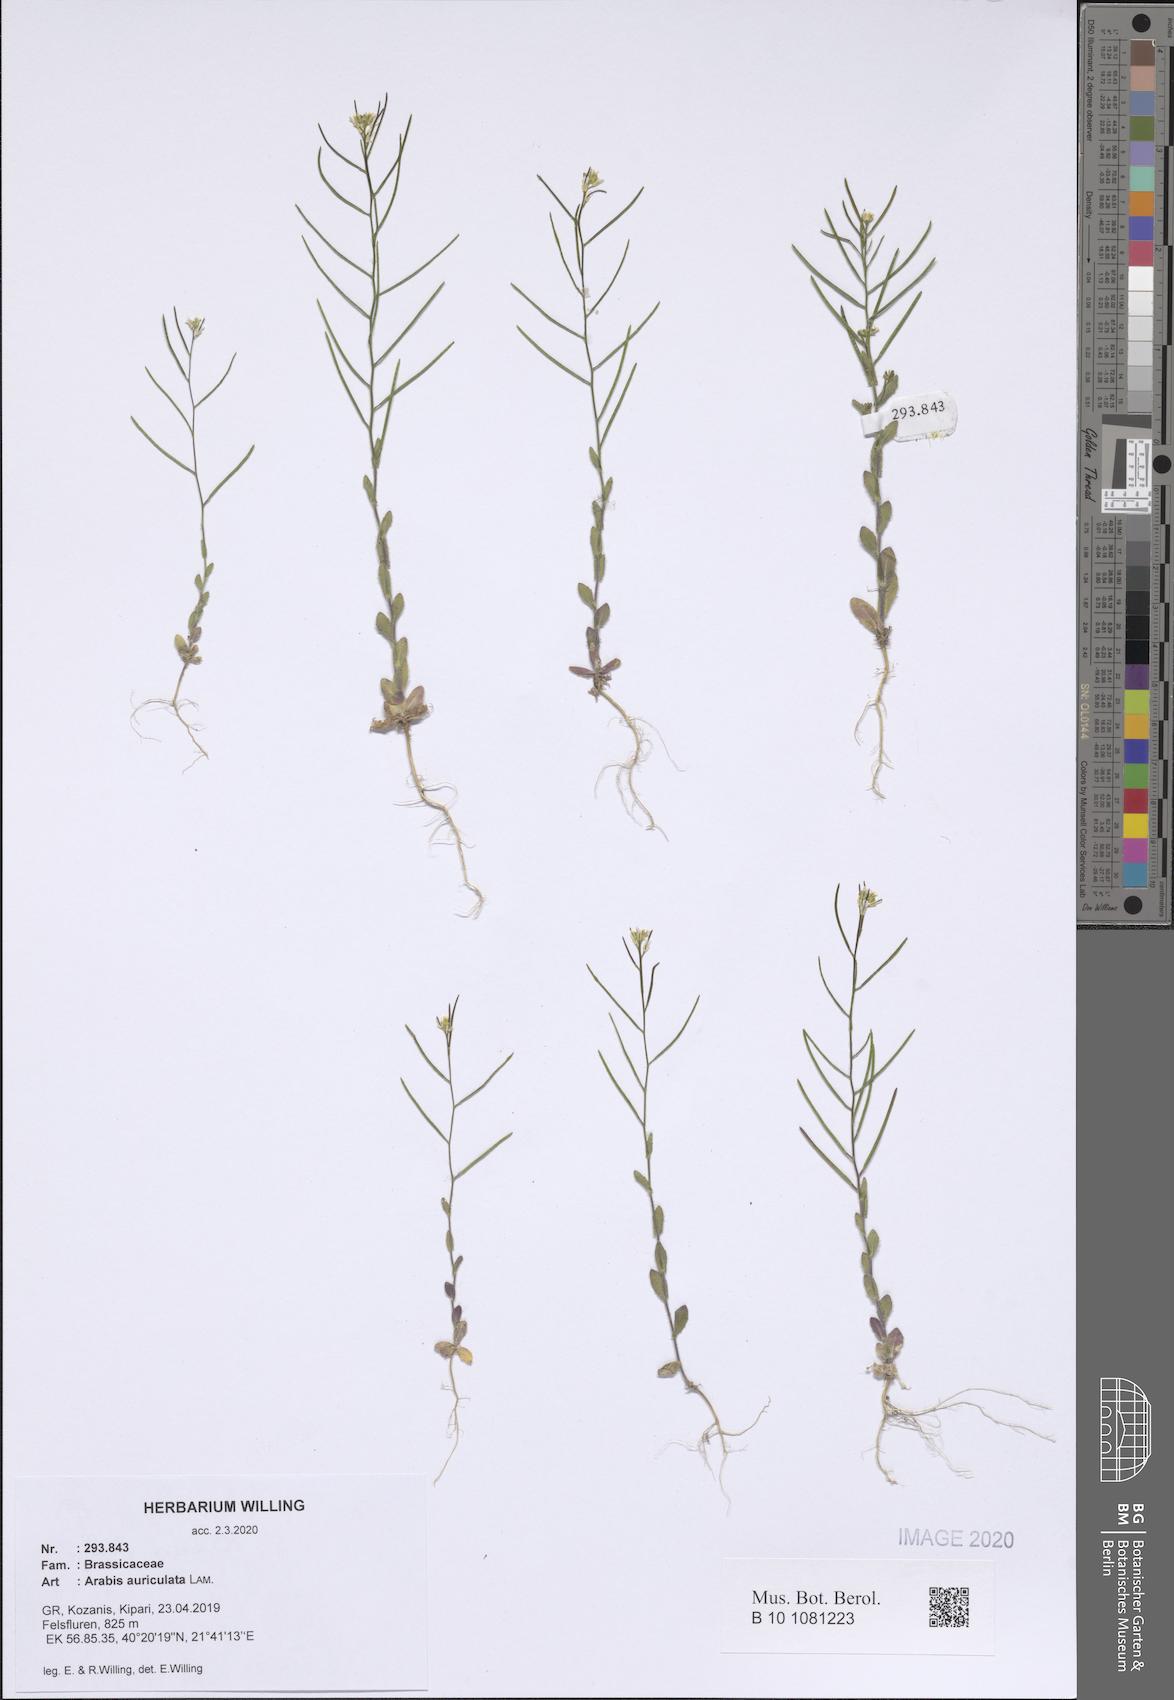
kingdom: Plantae
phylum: Tracheophyta
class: Magnoliopsida
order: Brassicales
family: Brassicaceae
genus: Arabis
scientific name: Arabis auriculata
